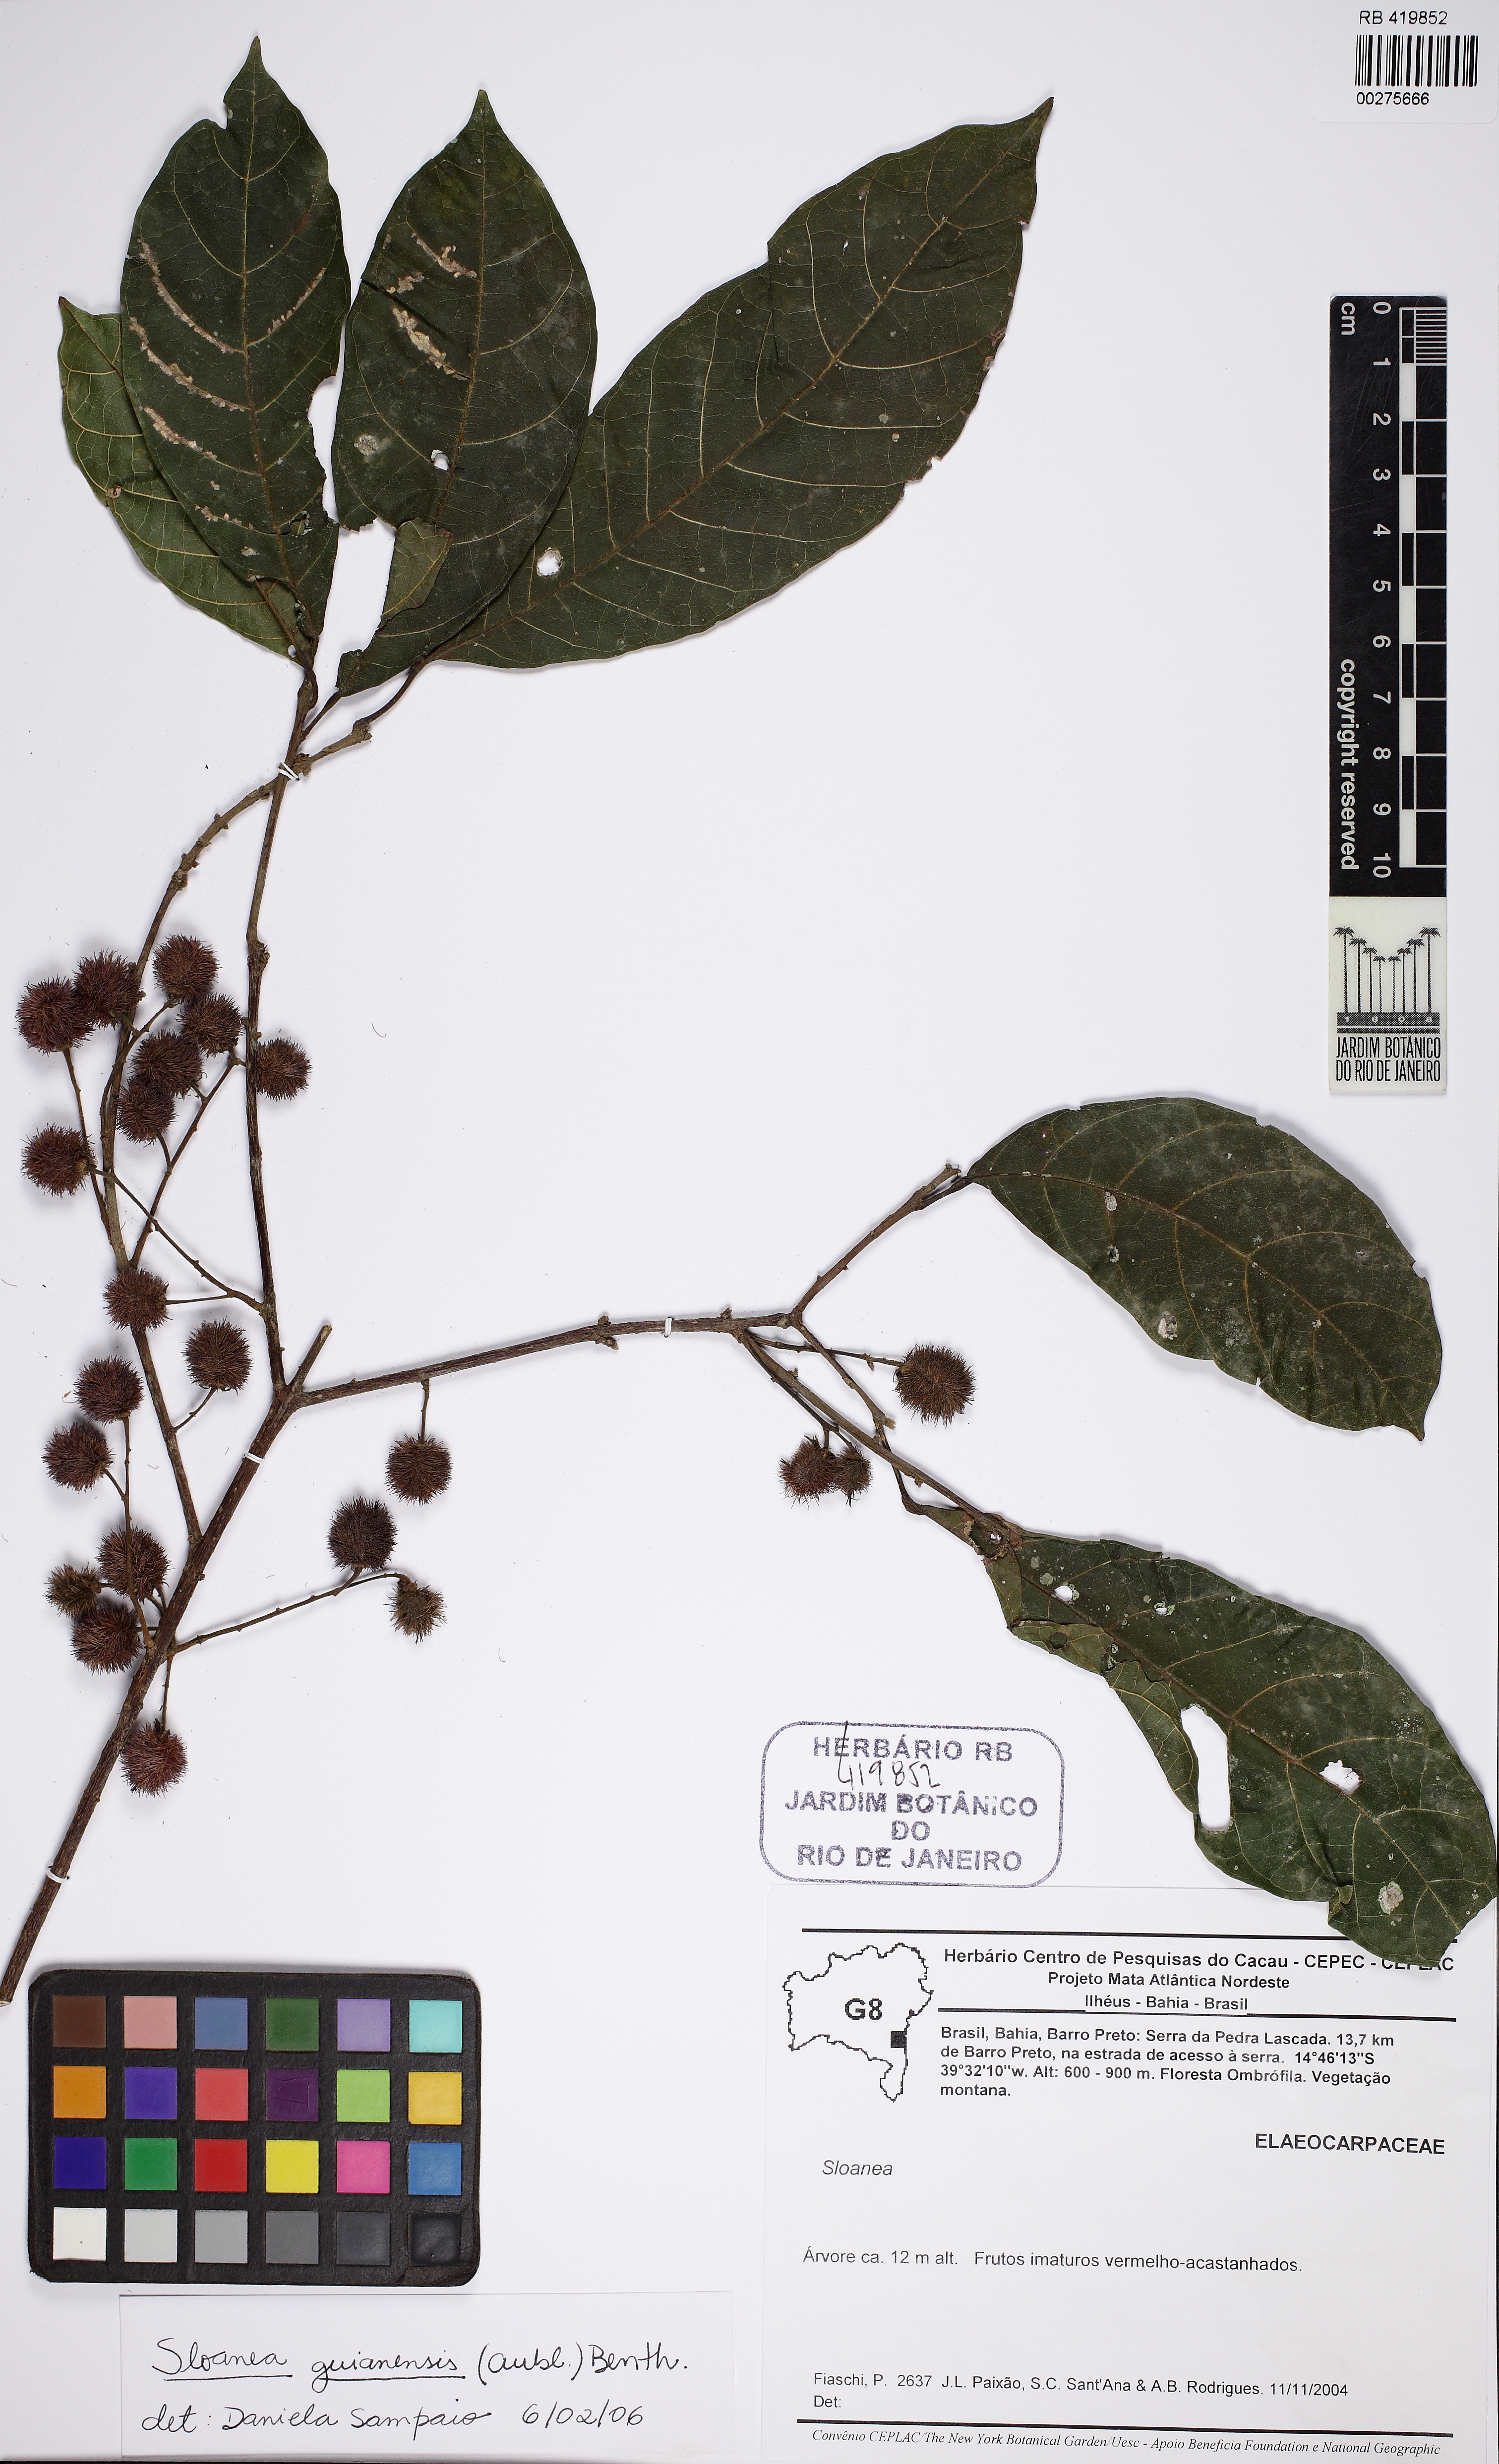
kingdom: Plantae
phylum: Tracheophyta
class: Magnoliopsida
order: Oxalidales
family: Elaeocarpaceae
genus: Sloanea
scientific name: Sloanea guianensis
